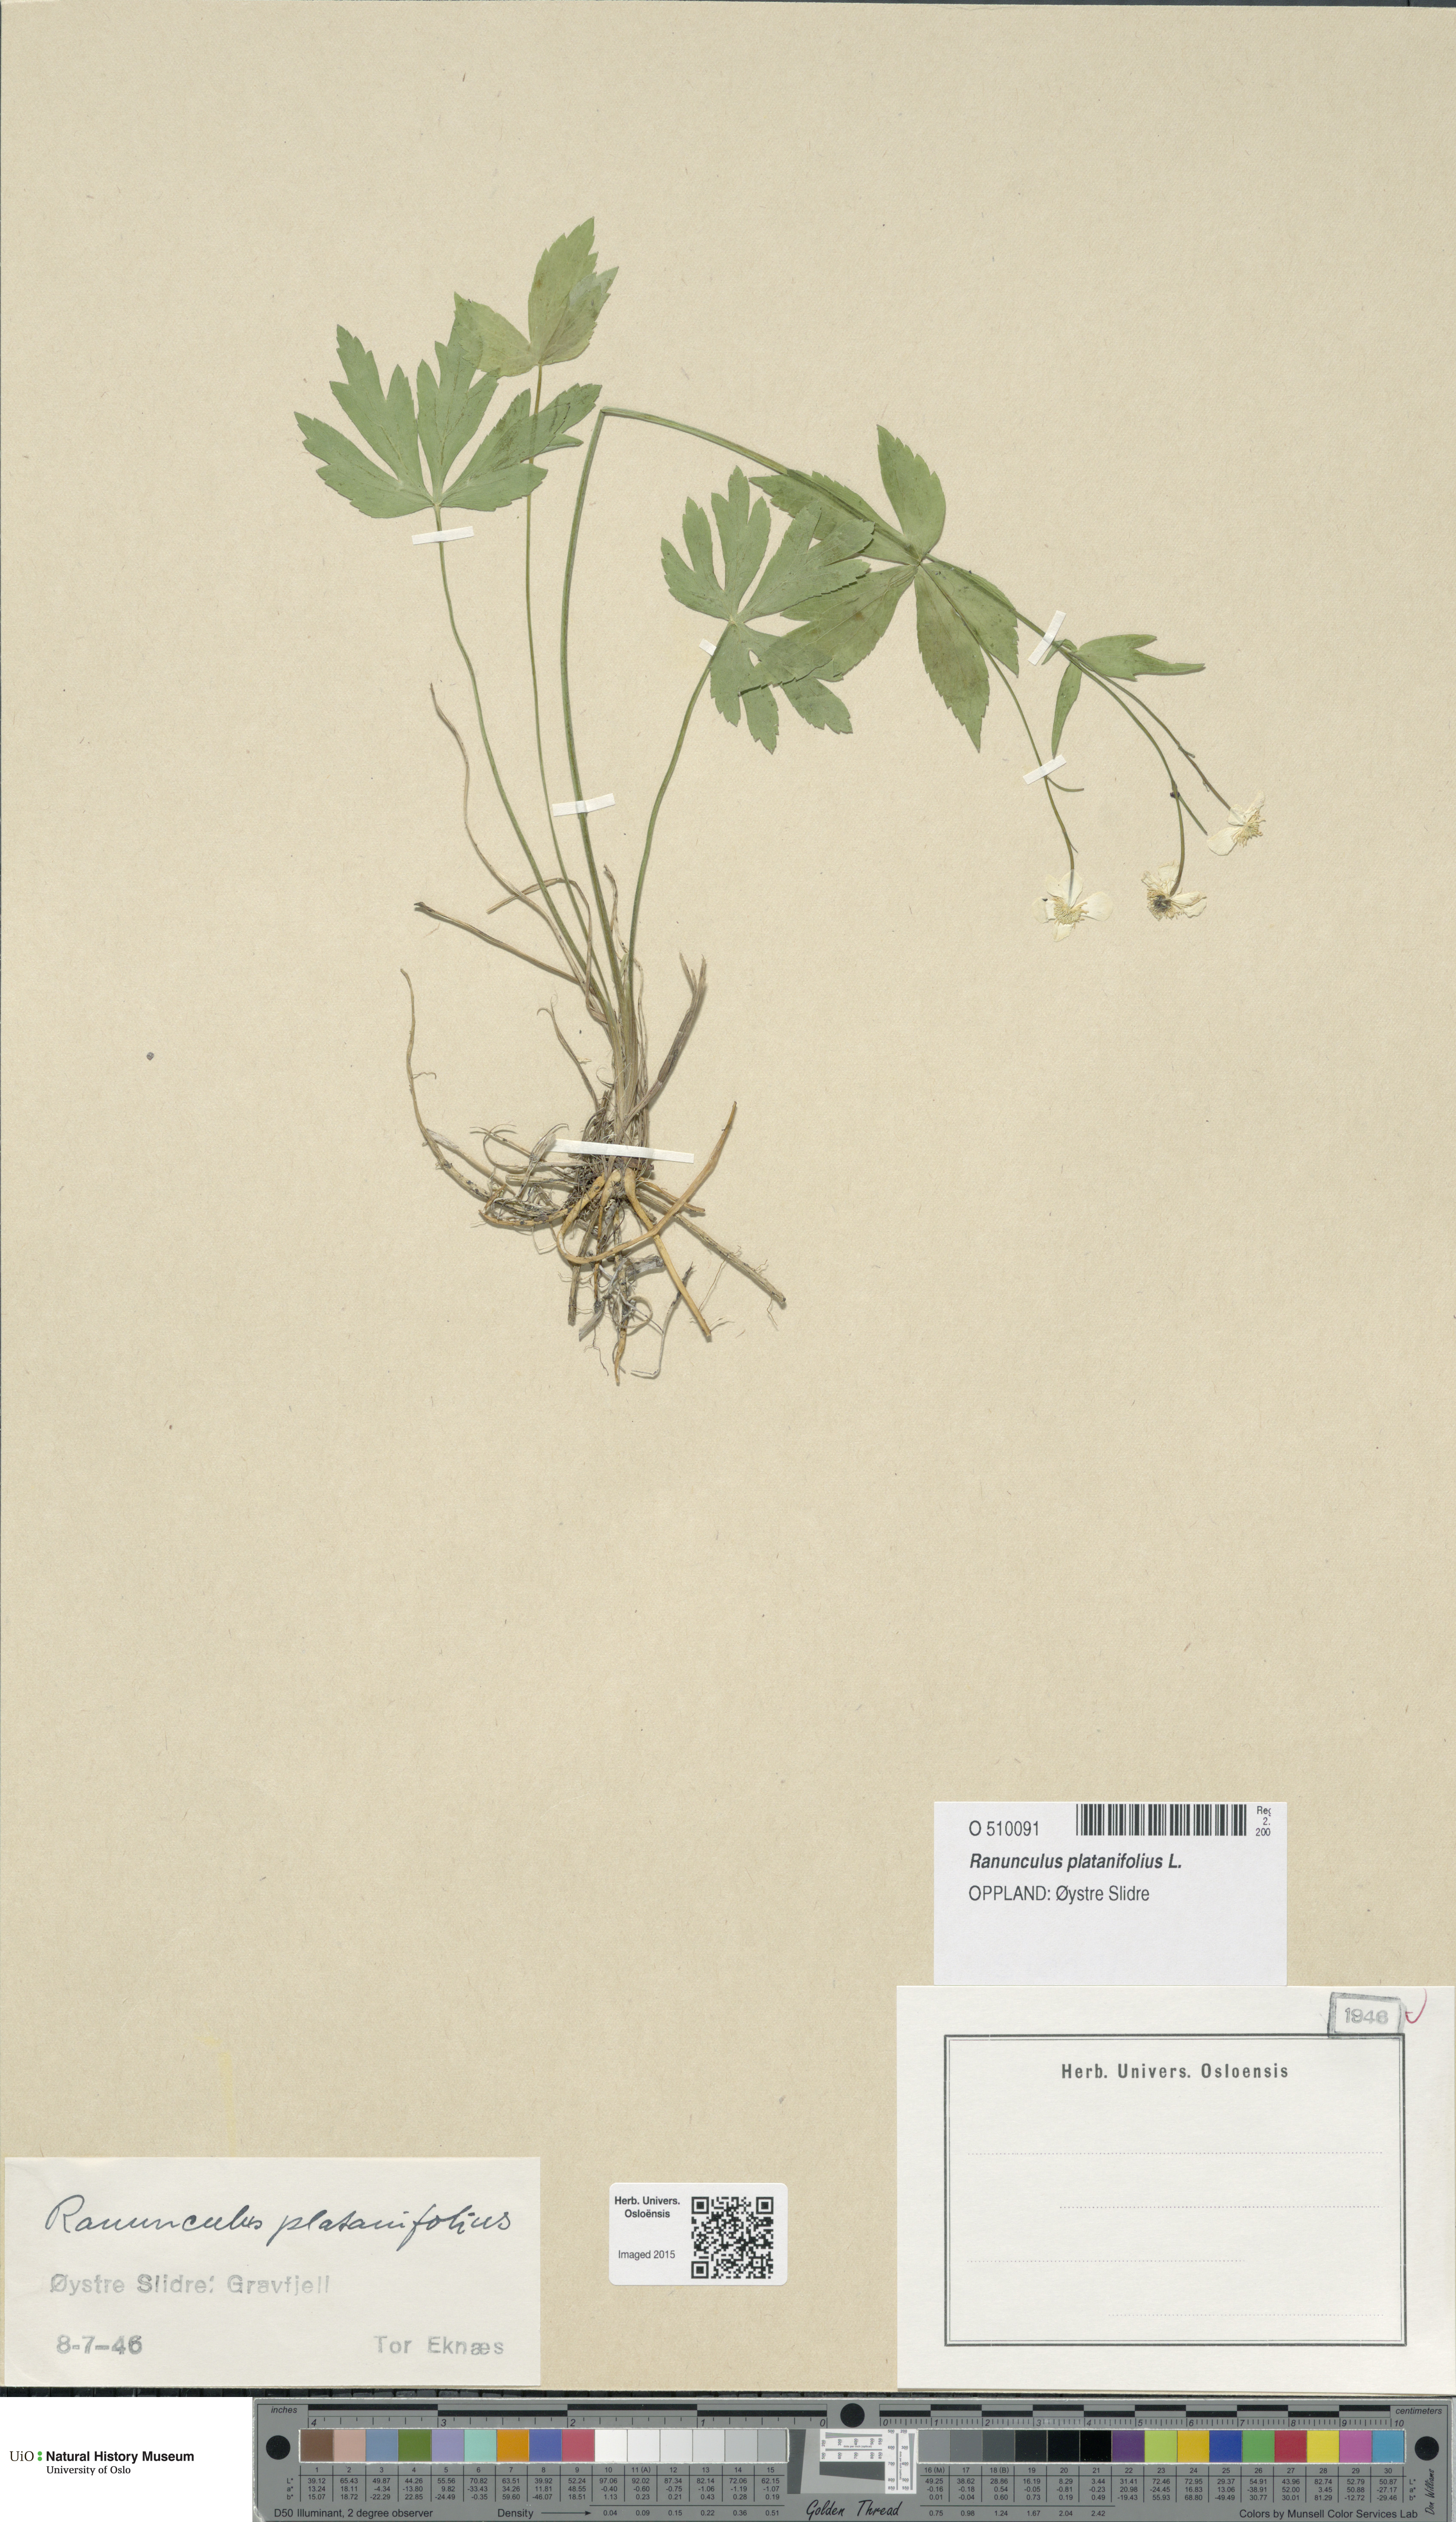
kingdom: Plantae
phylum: Tracheophyta
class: Magnoliopsida
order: Ranunculales
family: Ranunculaceae
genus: Ranunculus
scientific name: Ranunculus platanifolius
